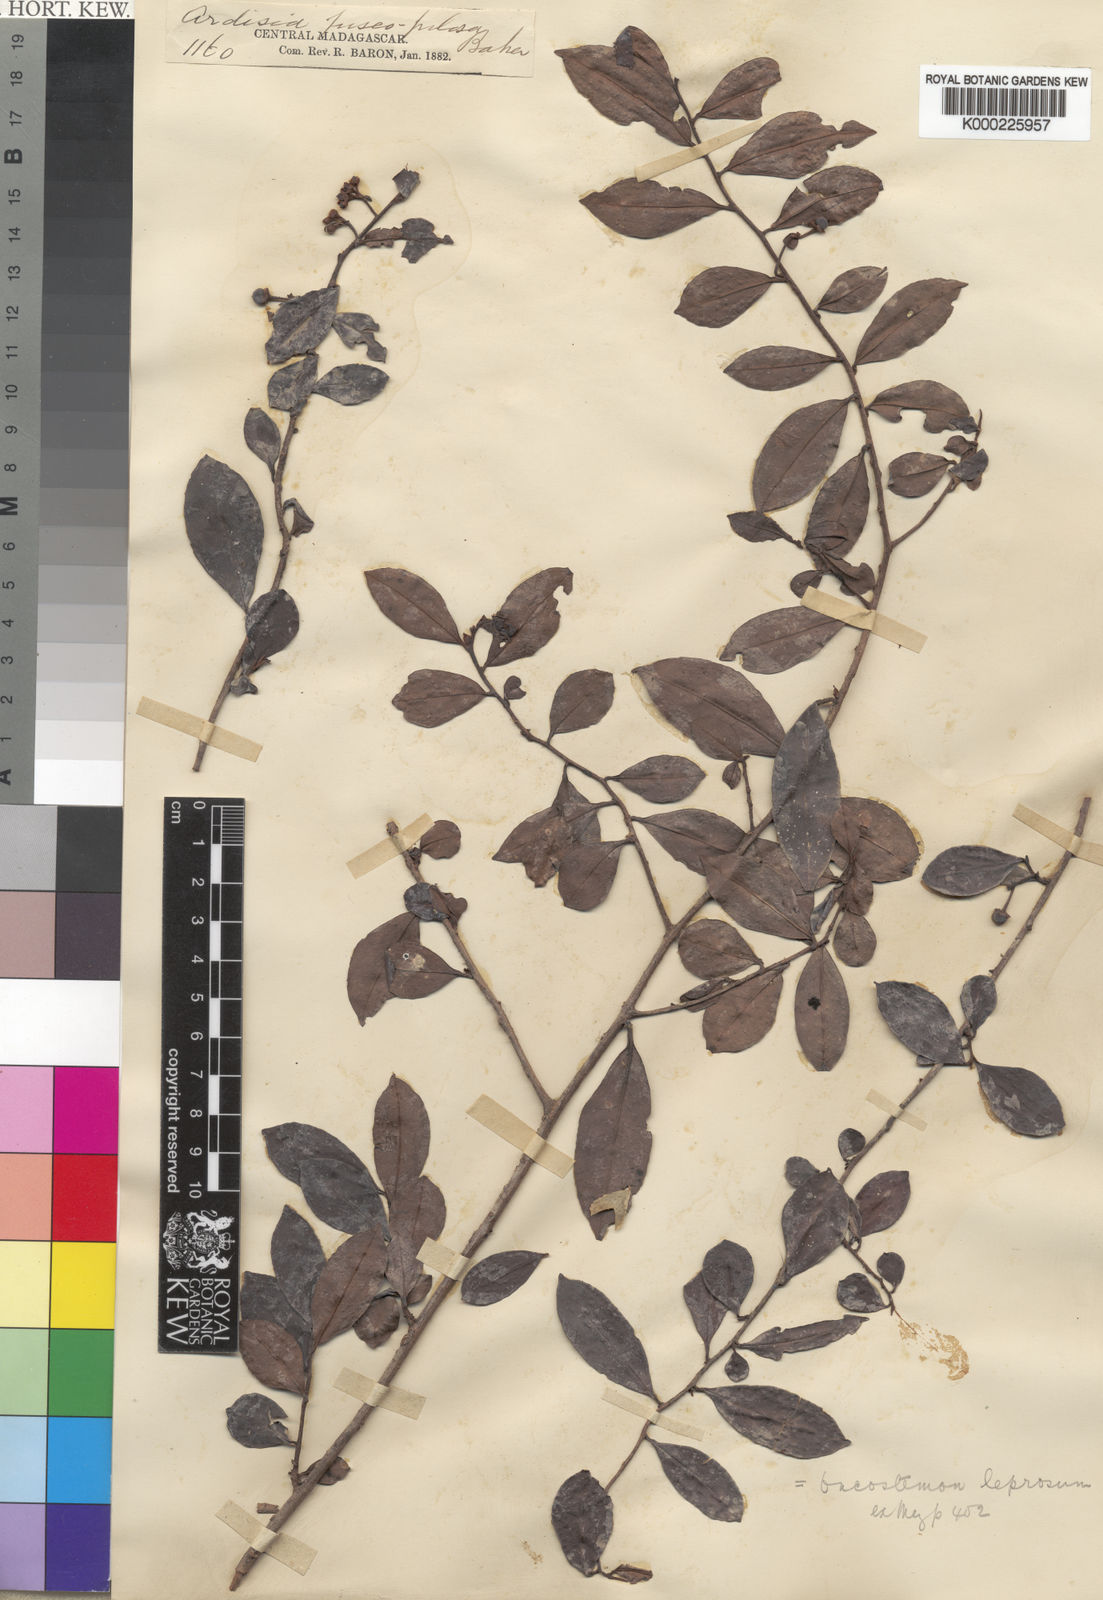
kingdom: Plantae
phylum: Tracheophyta
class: Magnoliopsida
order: Ericales
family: Primulaceae
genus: Oncostemum
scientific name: Oncostemum leprosum
